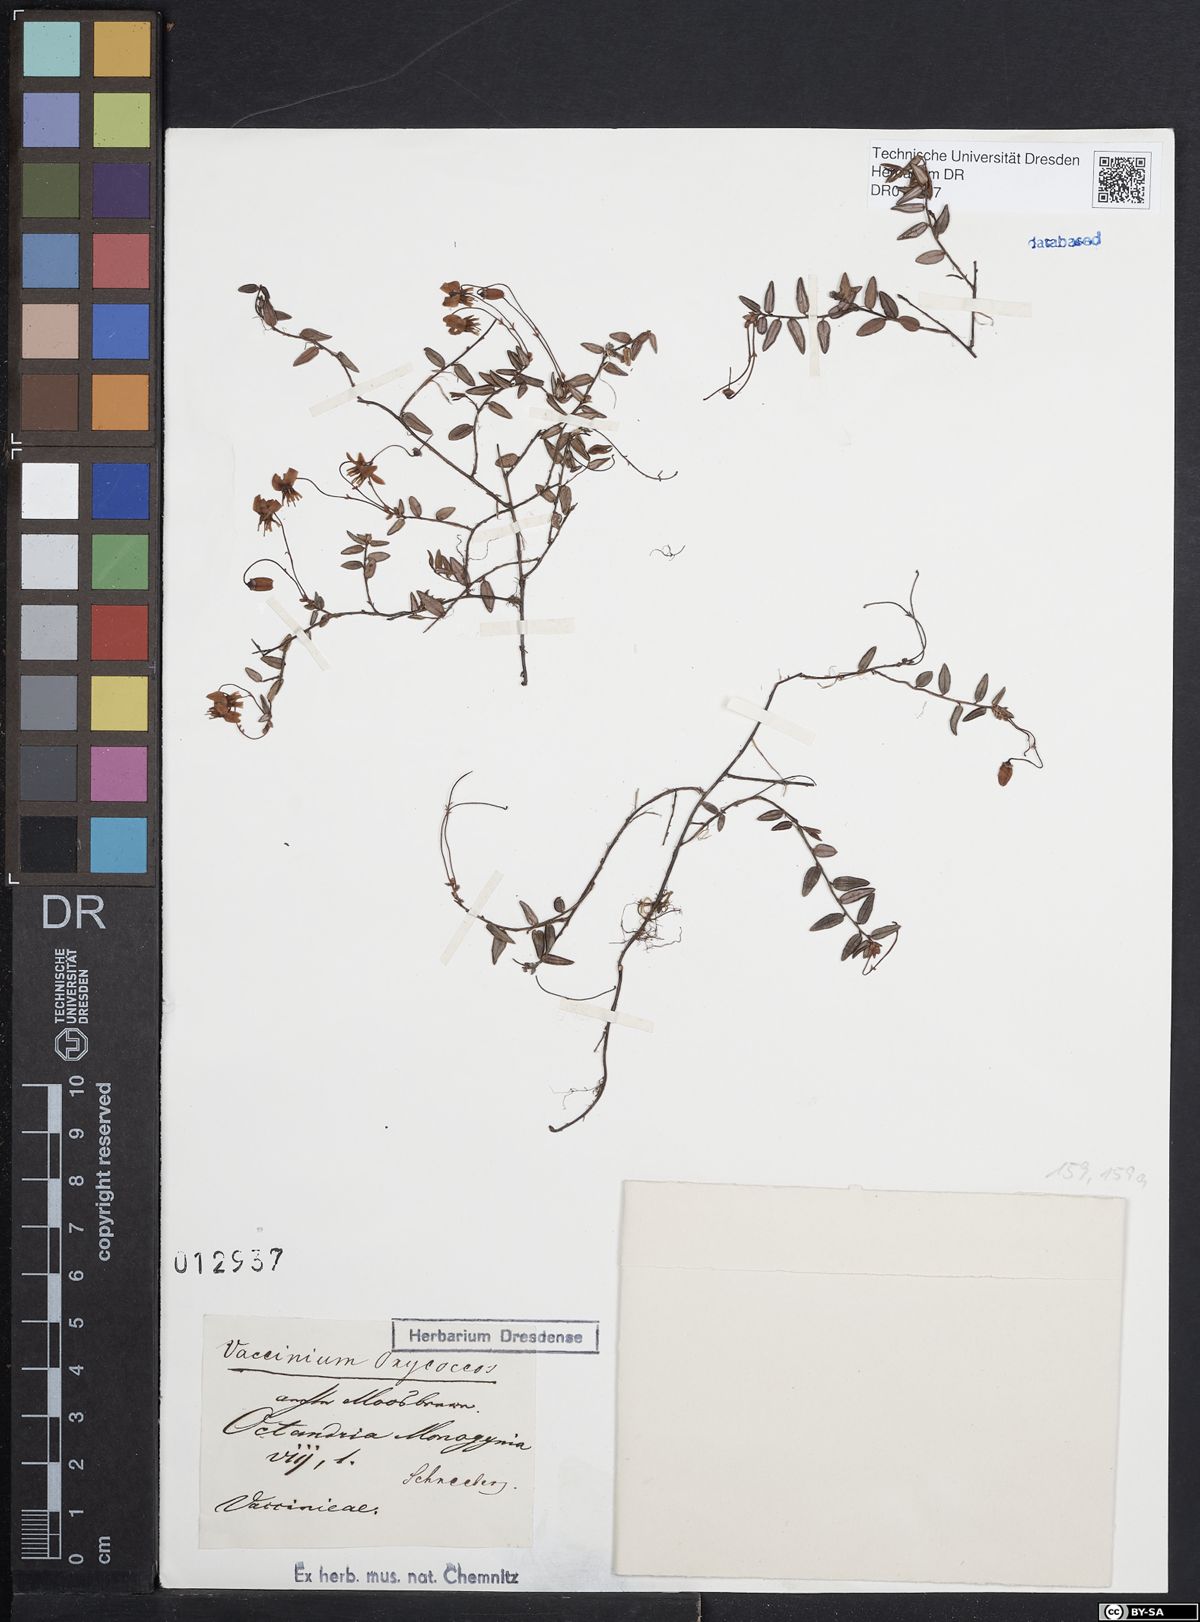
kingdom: Plantae
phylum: Tracheophyta
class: Magnoliopsida
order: Ericales
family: Ericaceae
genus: Vaccinium
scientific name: Vaccinium oxycoccos
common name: Cranberry
